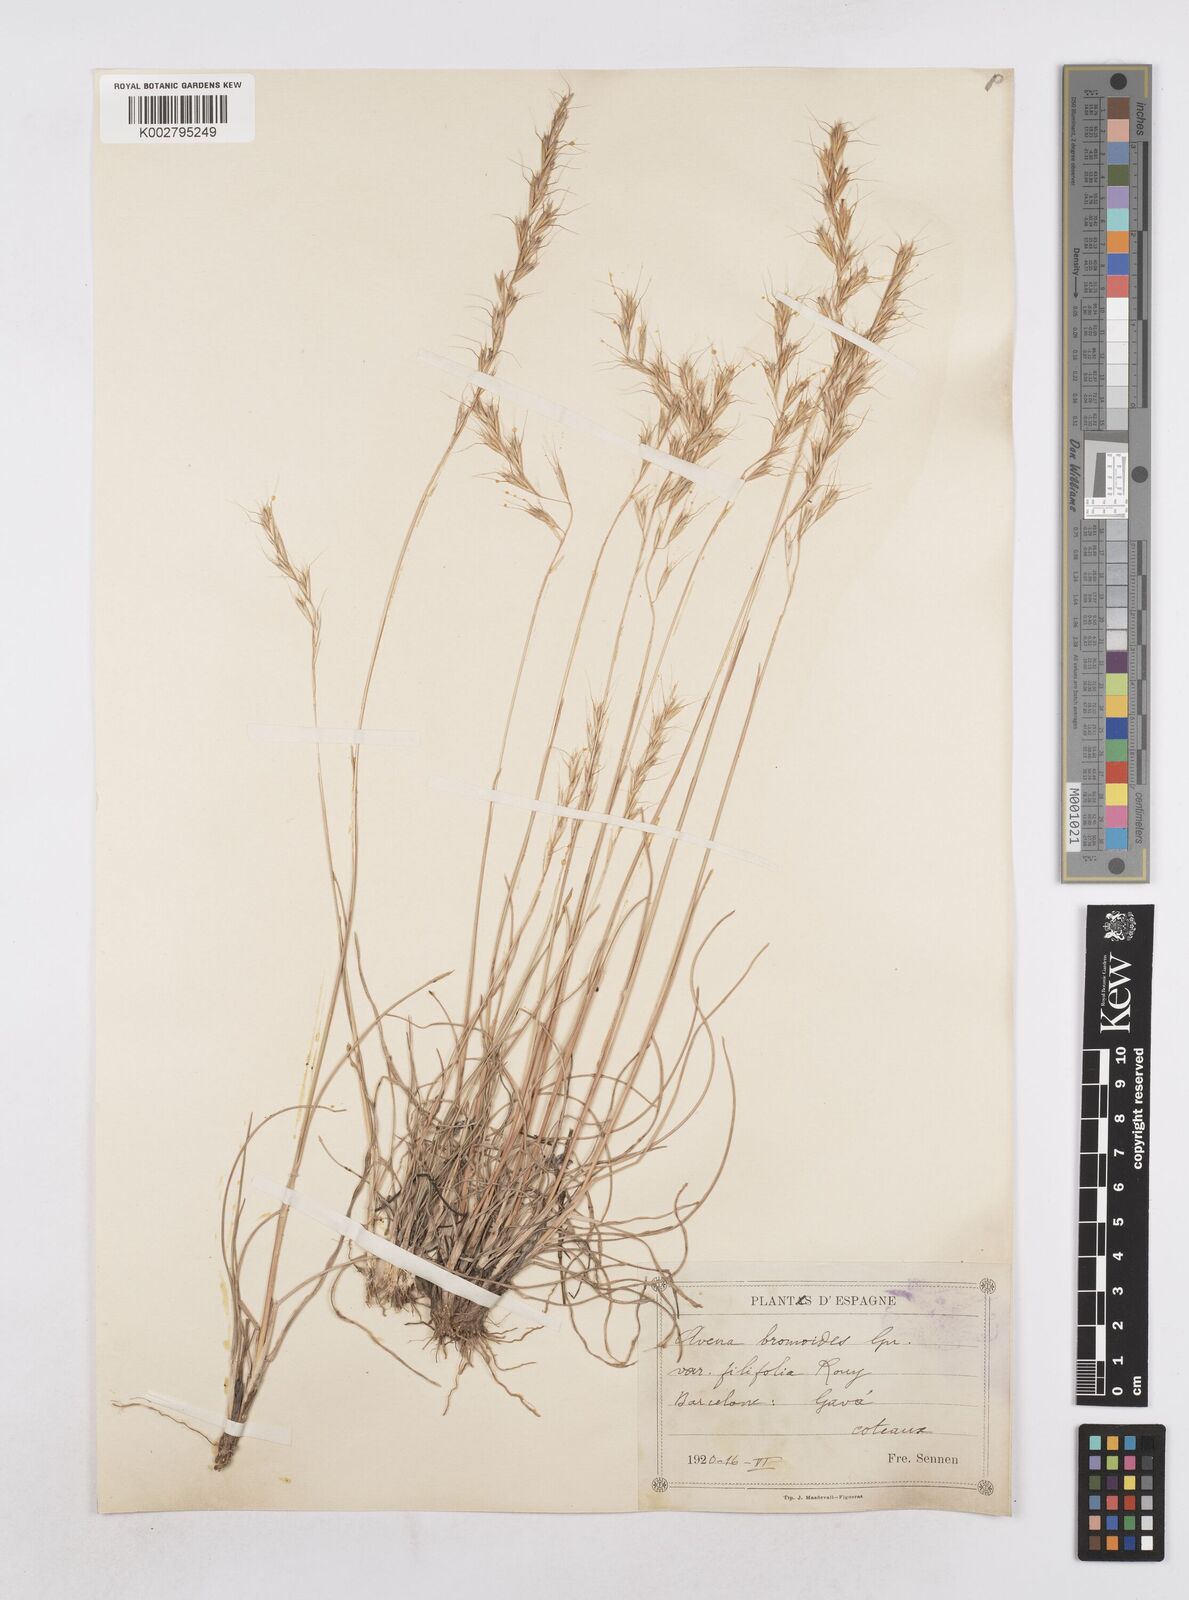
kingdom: Plantae
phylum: Tracheophyta
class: Liliopsida
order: Poales
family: Poaceae
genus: Helictochloa
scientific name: Helictochloa bromoides
